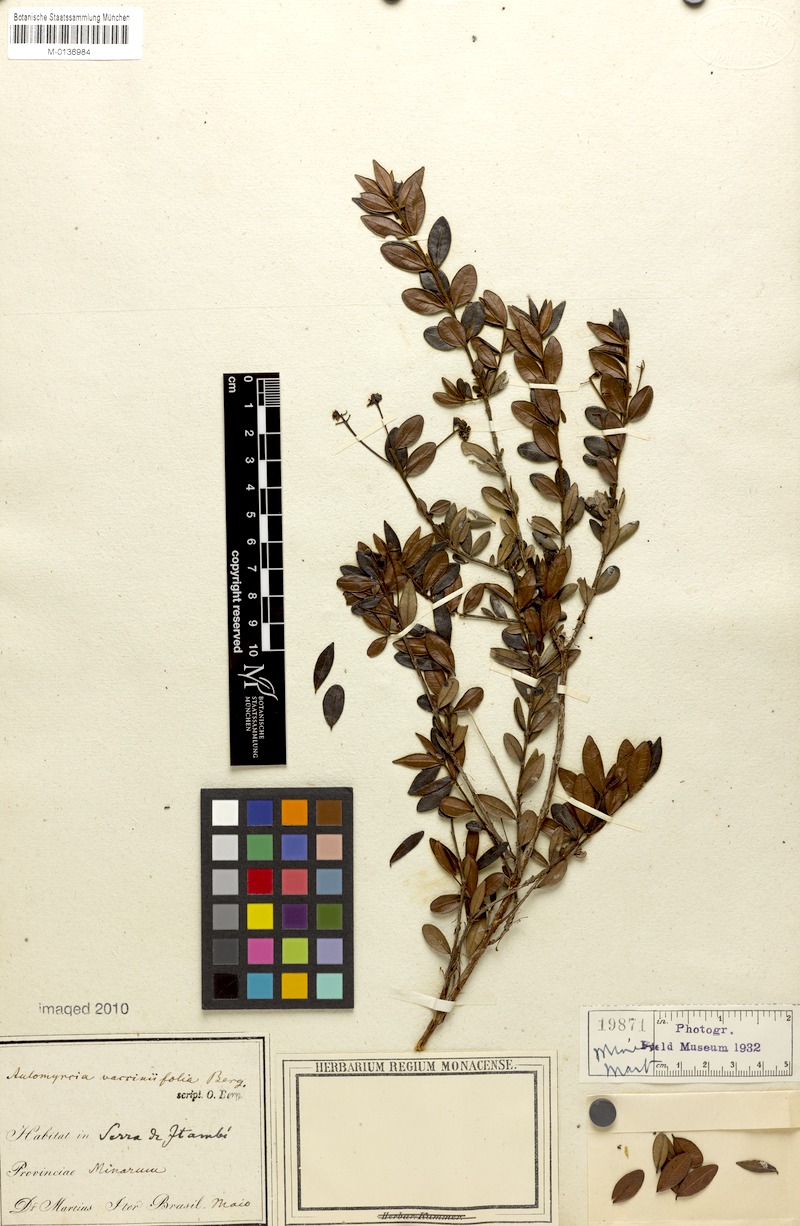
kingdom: Plantae
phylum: Tracheophyta
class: Magnoliopsida
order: Myrtales
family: Myrtaceae
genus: Myrcia
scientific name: Myrcia guianensis
